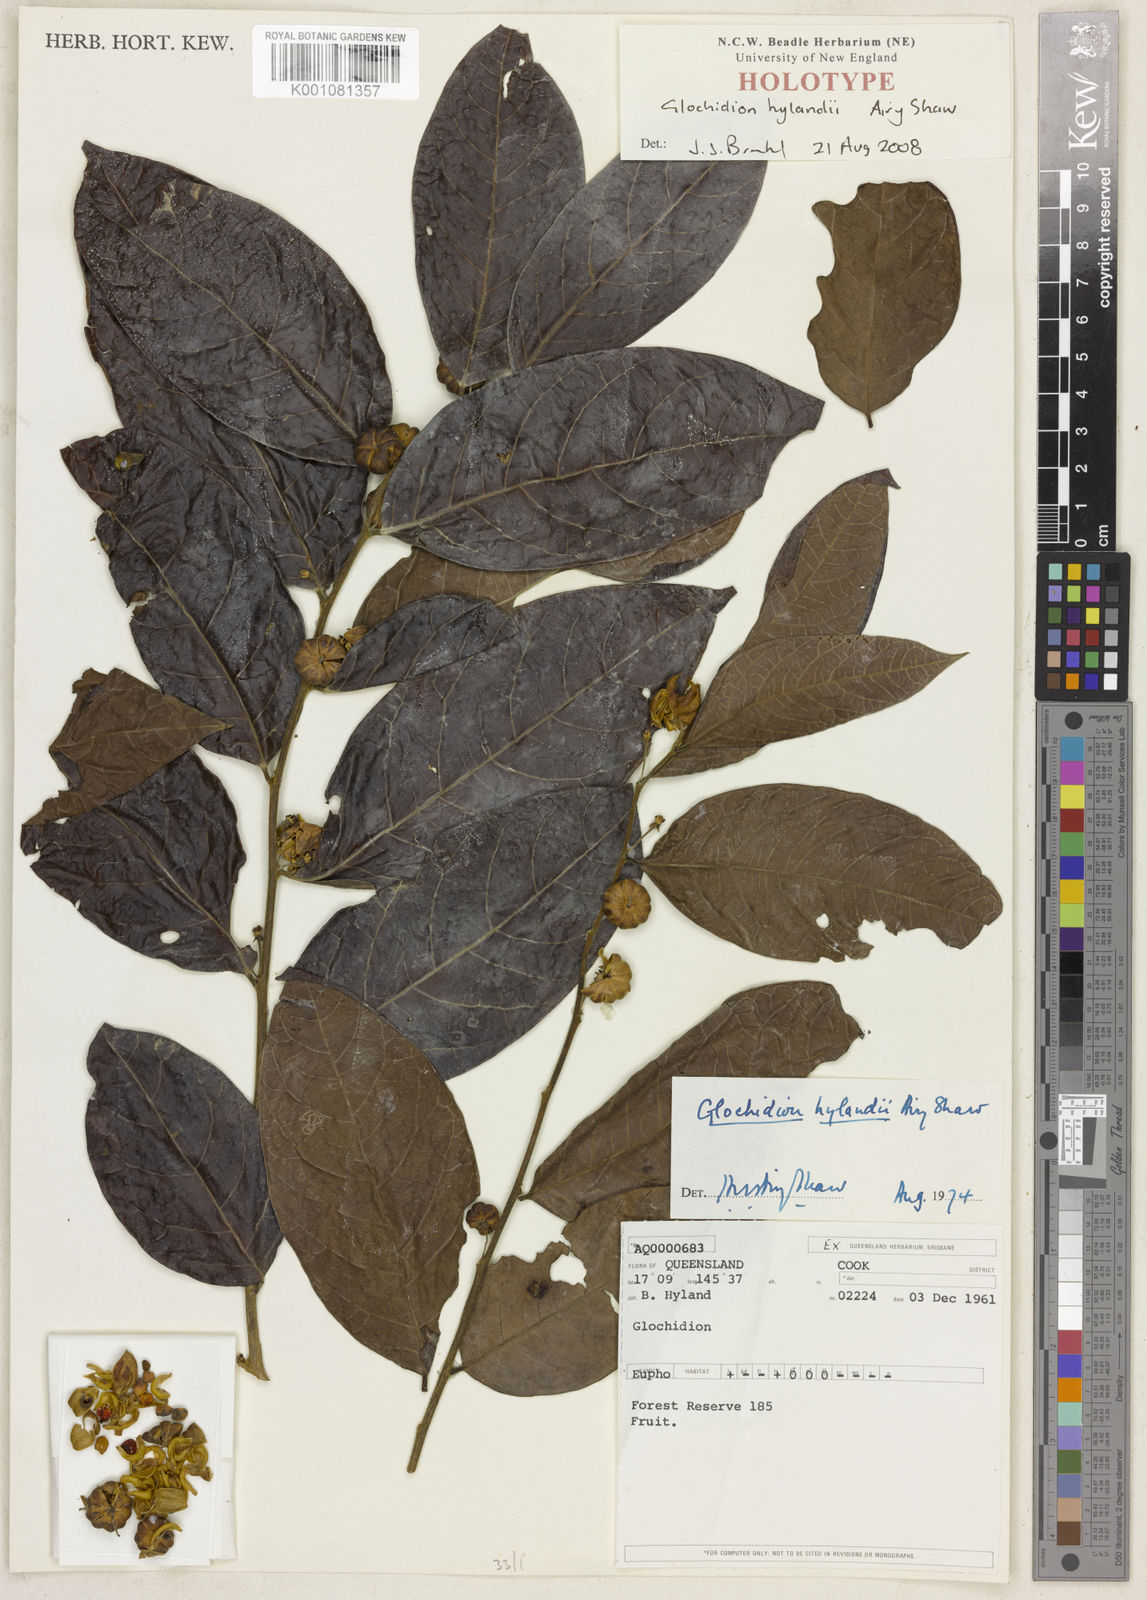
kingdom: Plantae
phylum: Tracheophyta
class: Magnoliopsida
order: Malpighiales
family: Phyllanthaceae
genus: Glochidion
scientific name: Glochidion hylandii
